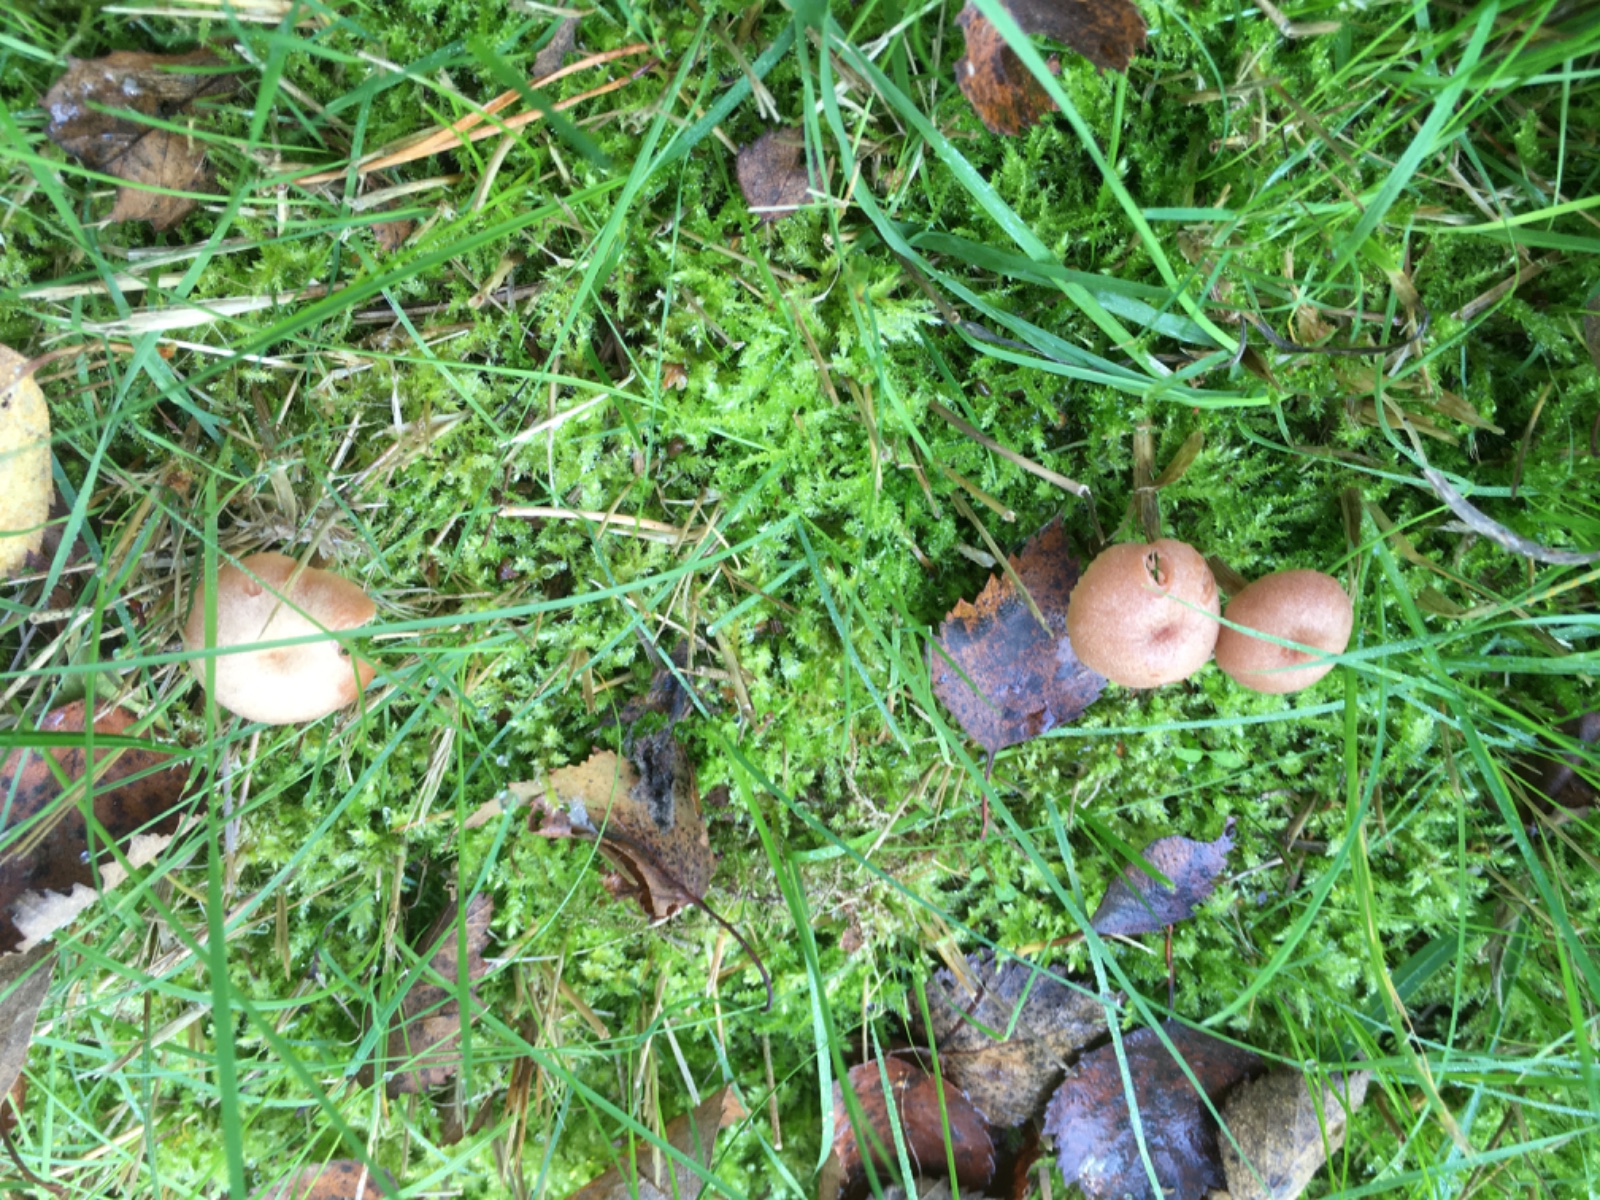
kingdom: Fungi
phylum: Basidiomycota
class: Agaricomycetes
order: Agaricales
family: Hydnangiaceae
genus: Laccaria
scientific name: Laccaria laccata
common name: rød ametysthat
